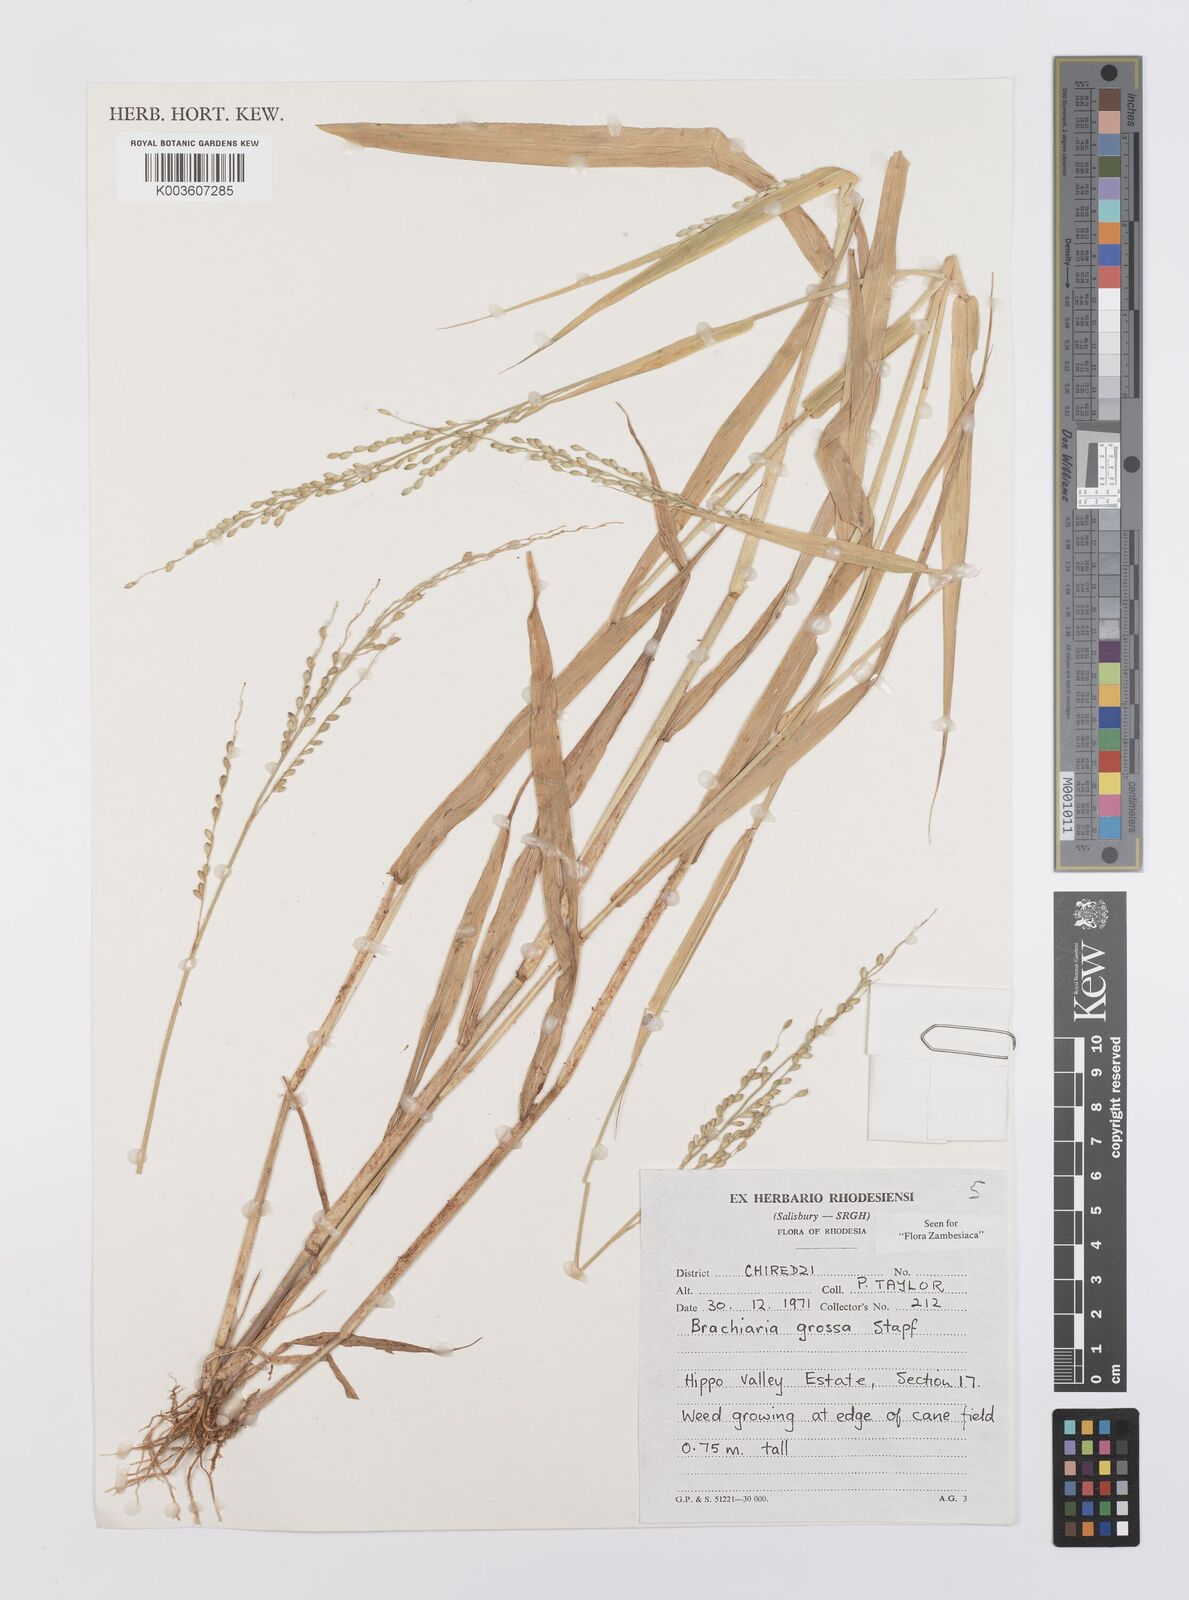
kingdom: Plantae
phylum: Tracheophyta
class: Liliopsida
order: Poales
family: Poaceae
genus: Urochloa
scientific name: Urochloa Brachiaria grossa
